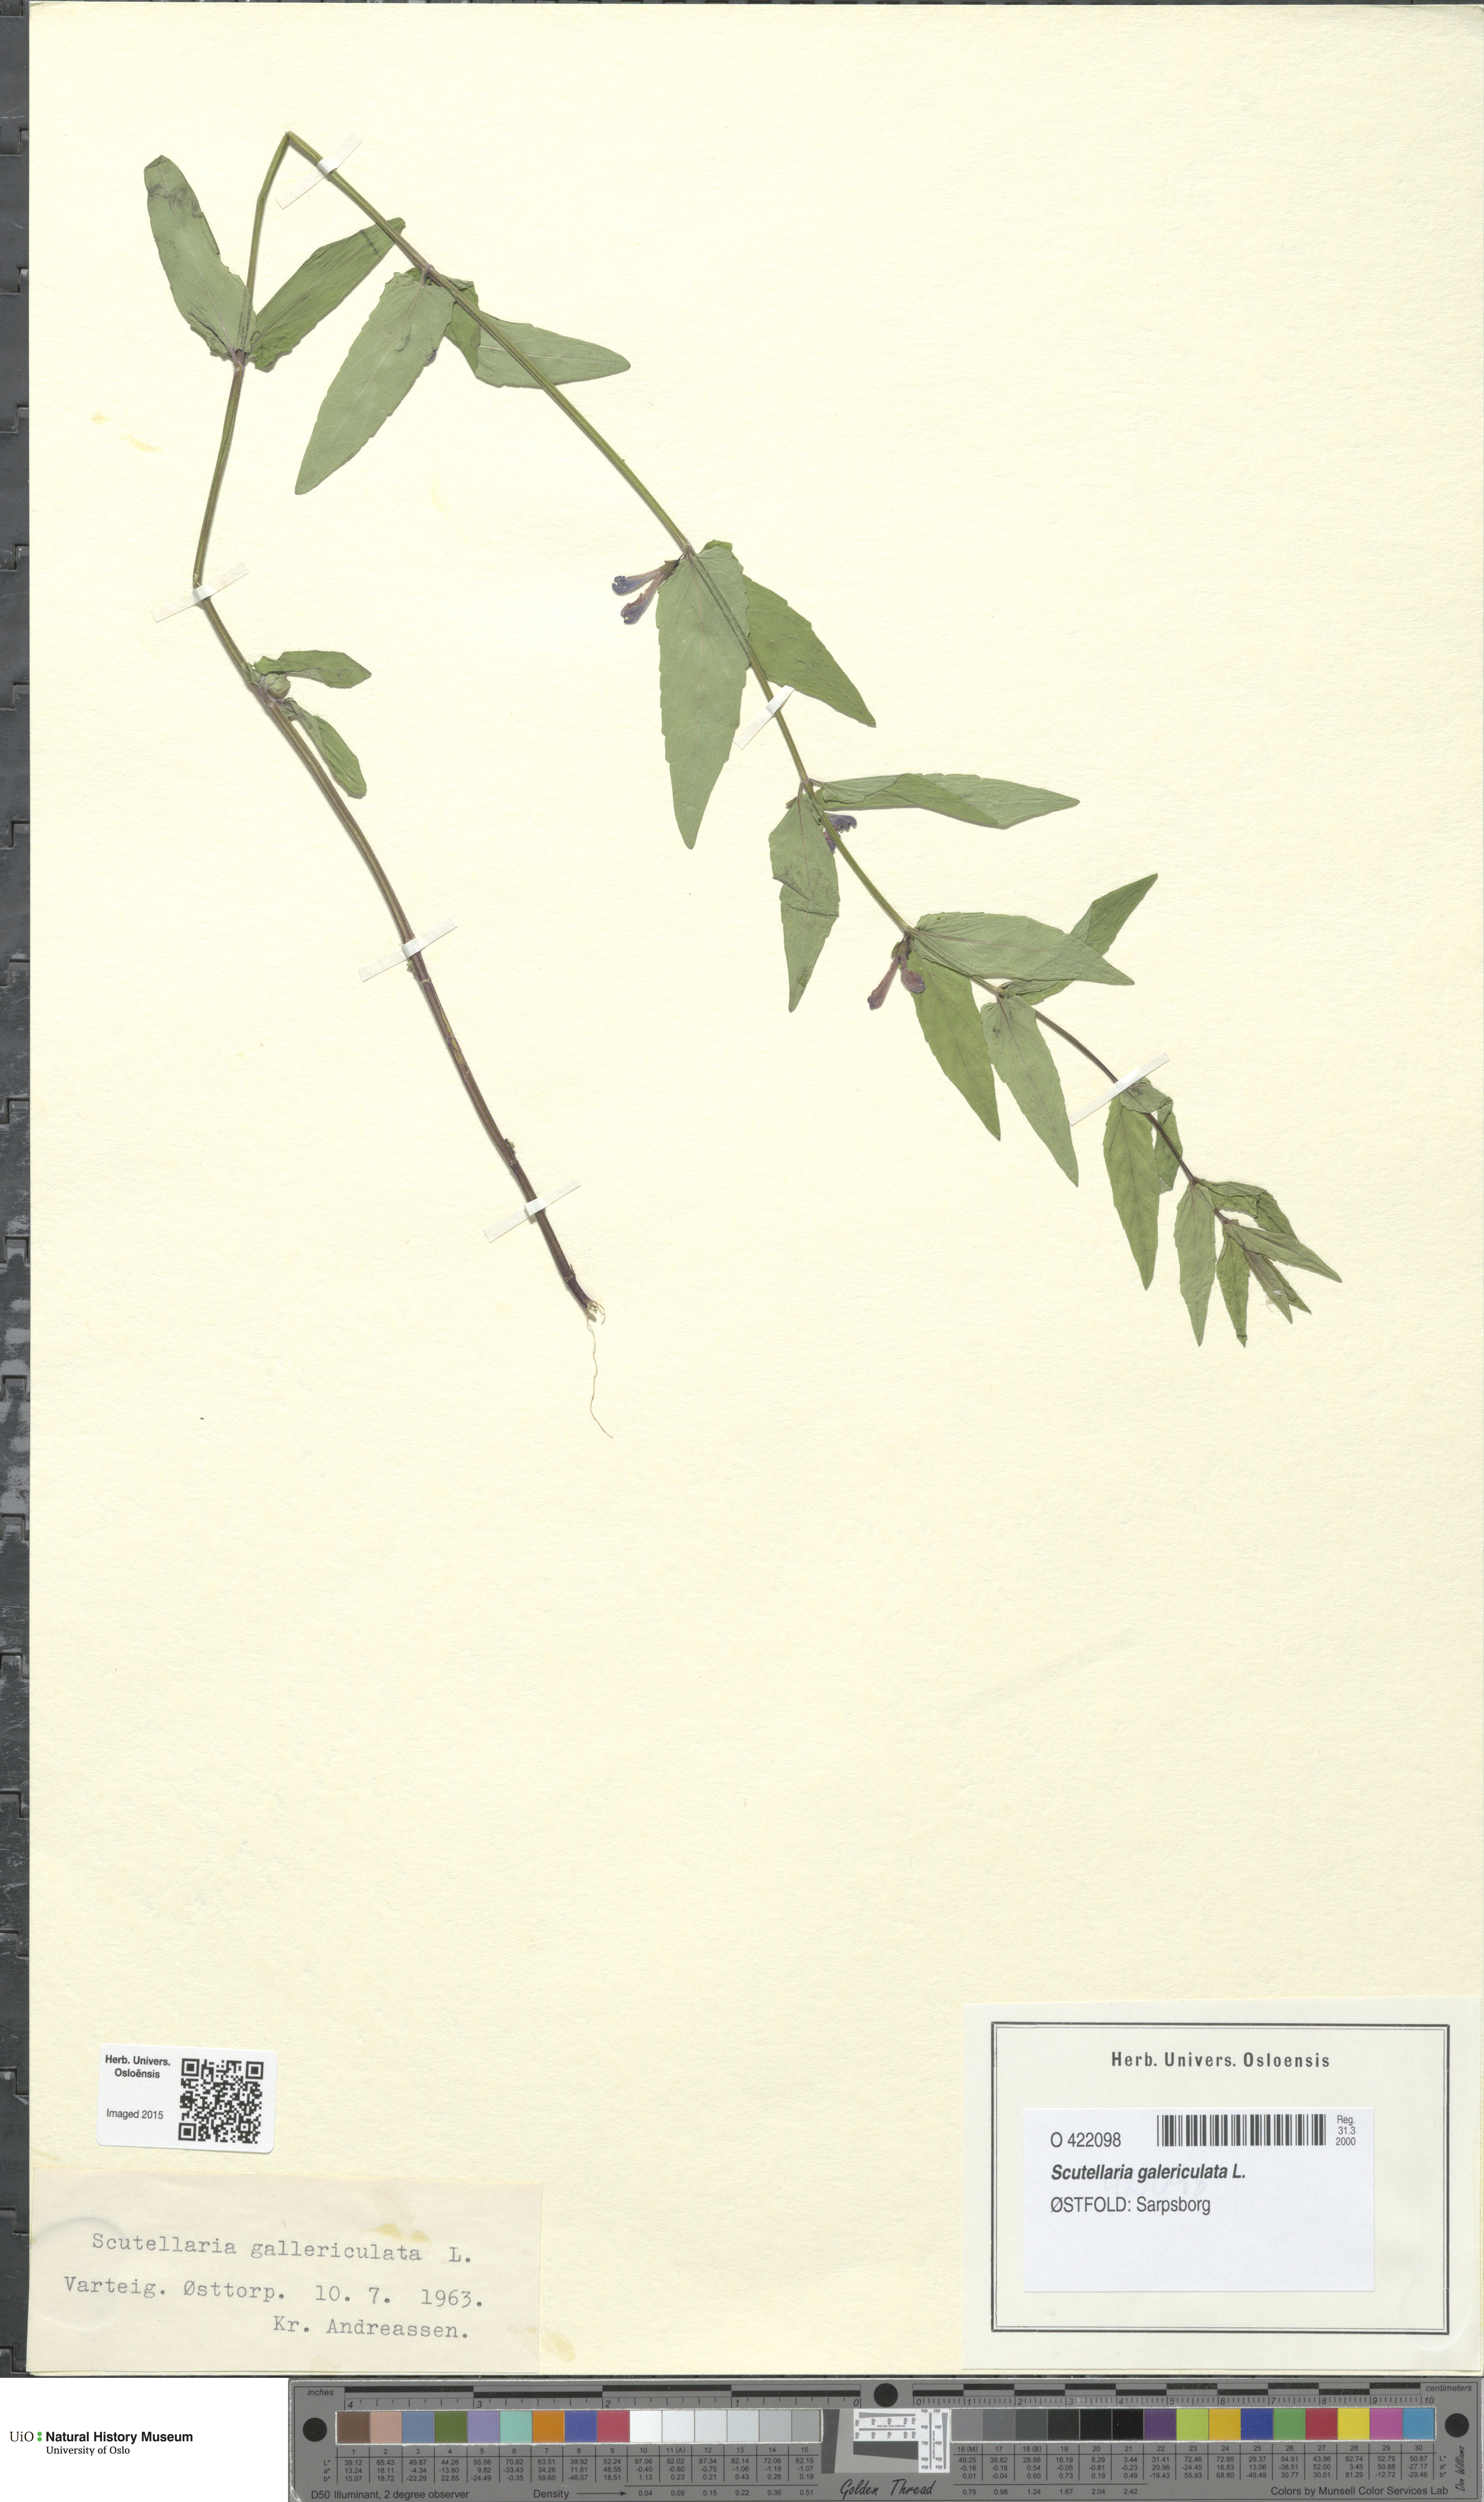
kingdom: Plantae
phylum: Tracheophyta
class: Magnoliopsida
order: Lamiales
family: Lamiaceae
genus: Scutellaria
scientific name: Scutellaria galericulata
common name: Skullcap
